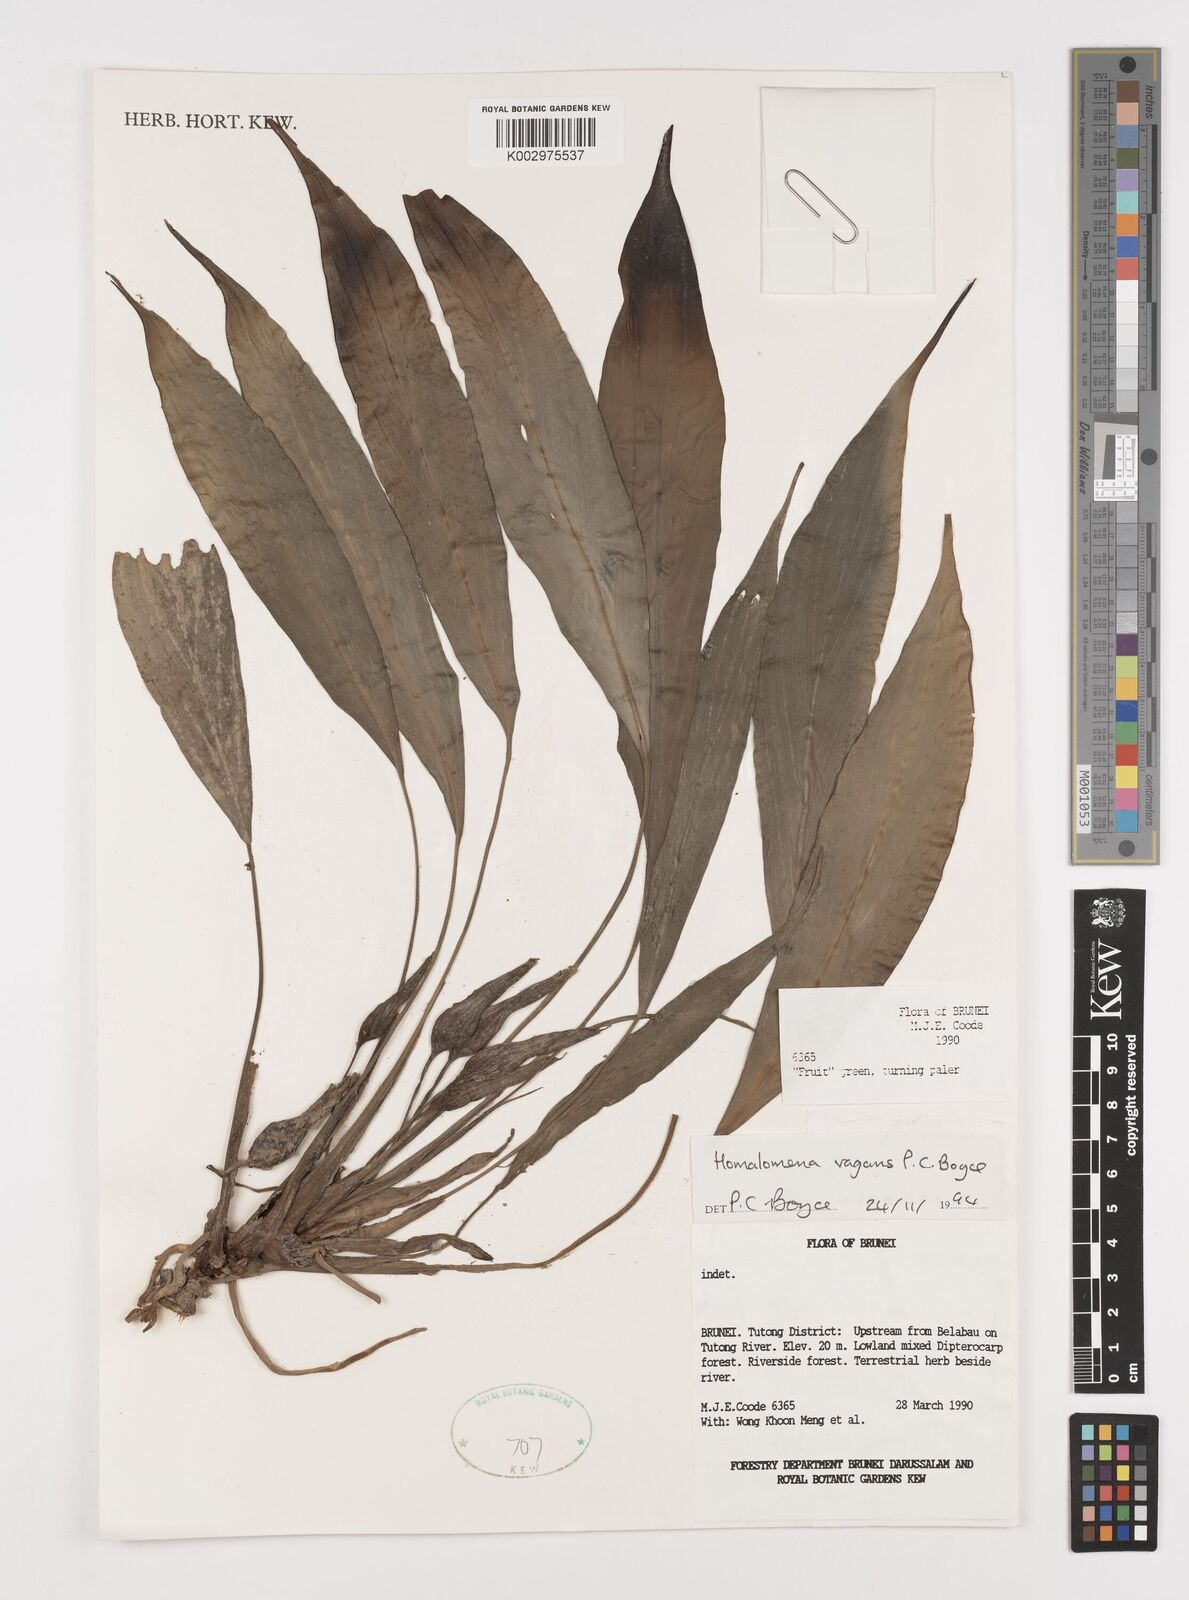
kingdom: Plantae
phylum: Tracheophyta
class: Liliopsida
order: Alismatales
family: Araceae
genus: Homalomena
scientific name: Homalomena vagans
